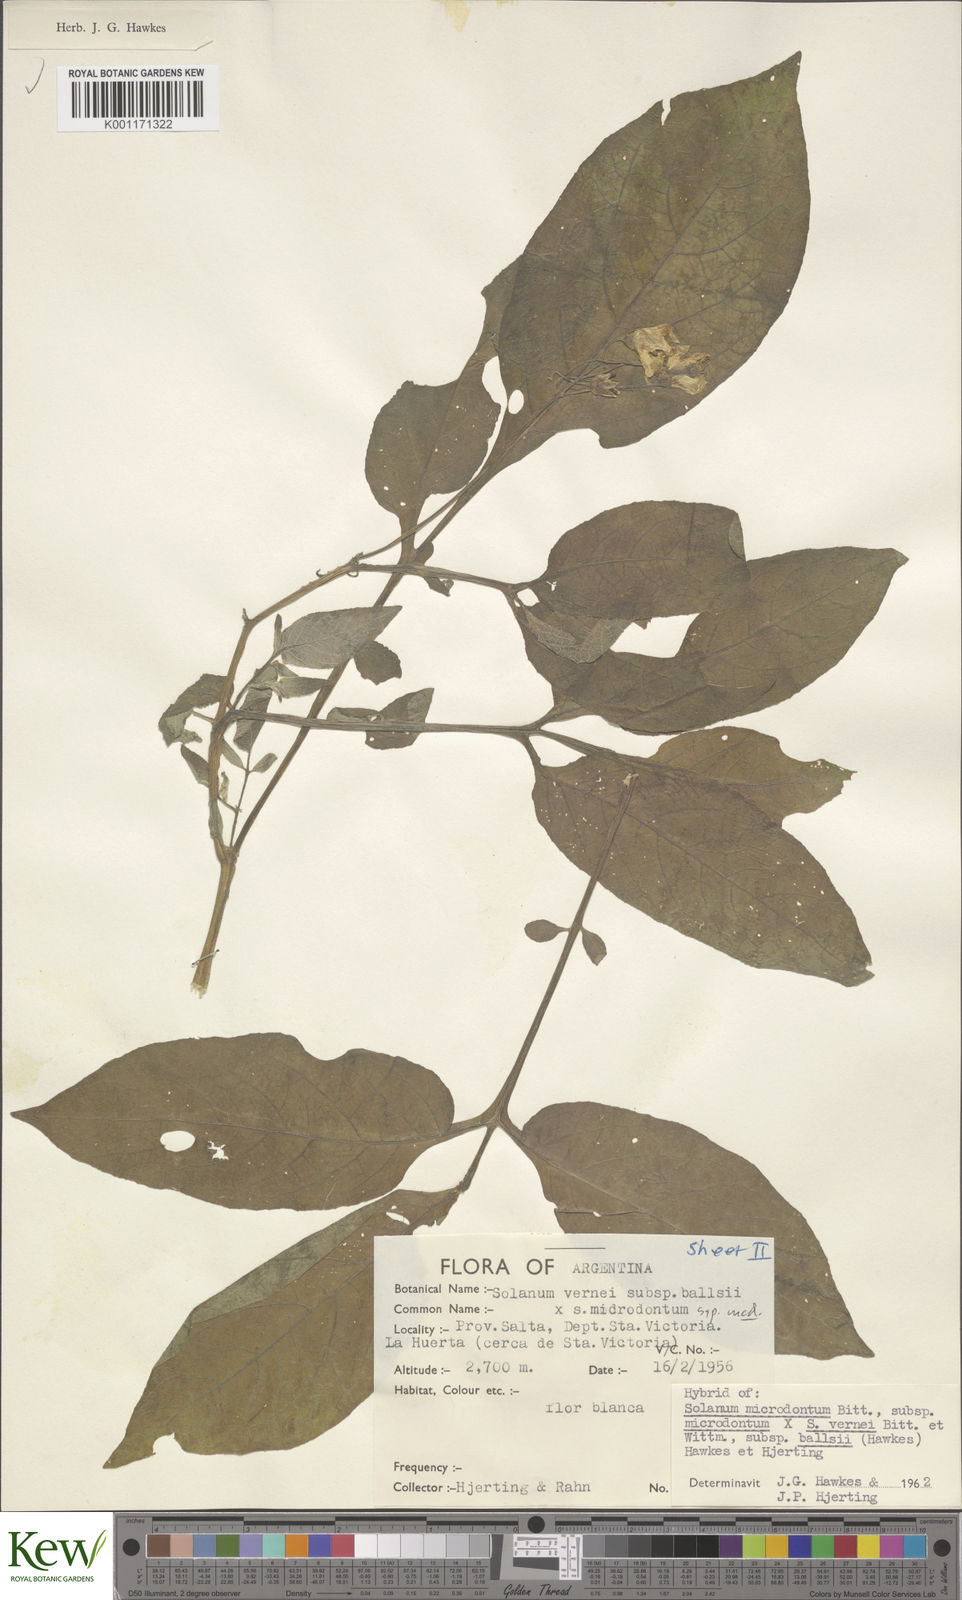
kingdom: Plantae
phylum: Tracheophyta
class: Magnoliopsida
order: Solanales
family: Solanaceae
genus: Solanum
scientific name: Solanum microdontum
